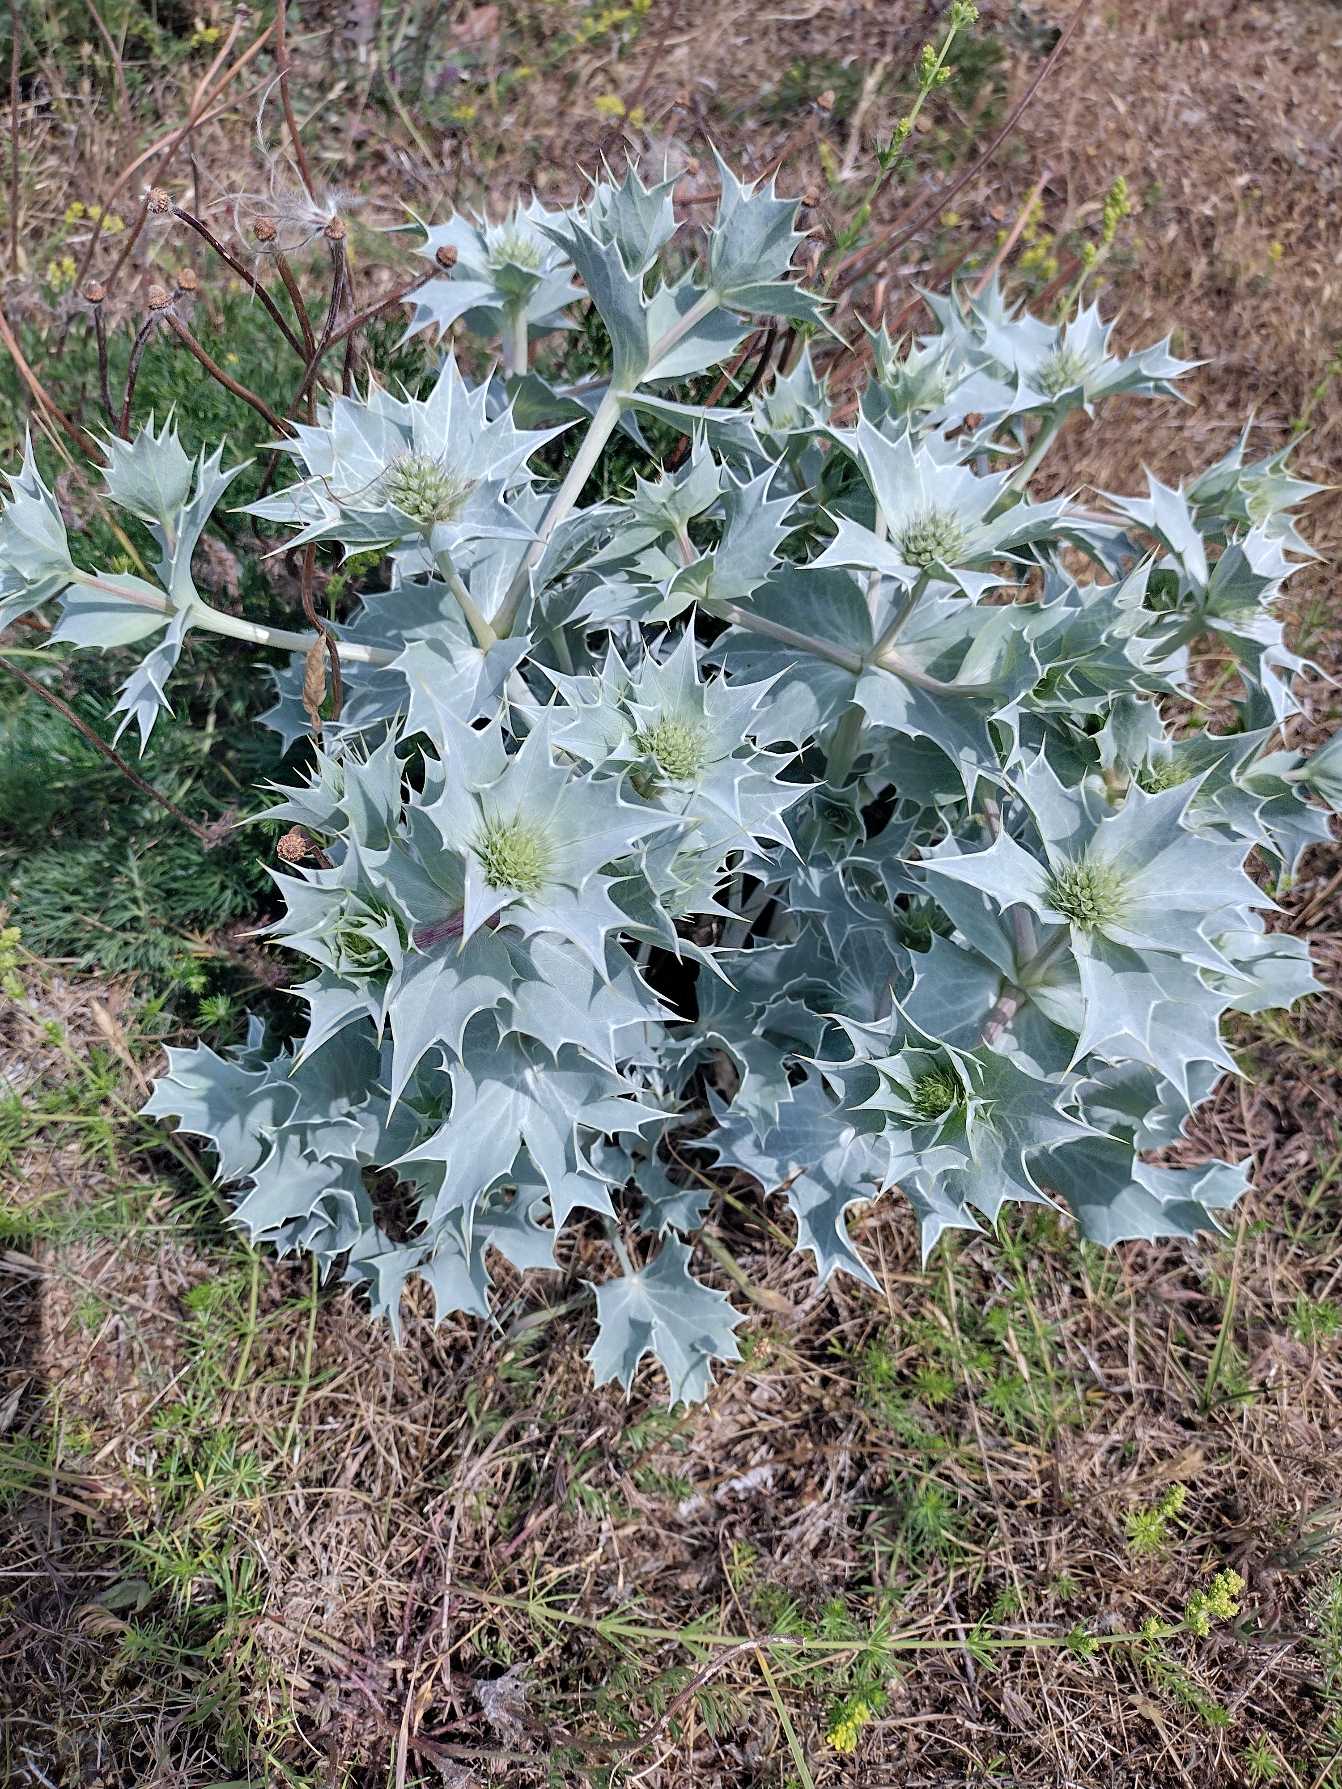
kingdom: Plantae
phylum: Tracheophyta
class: Magnoliopsida
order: Apiales
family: Apiaceae
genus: Eryngium
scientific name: Eryngium maritimum
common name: Strand-mandstro
